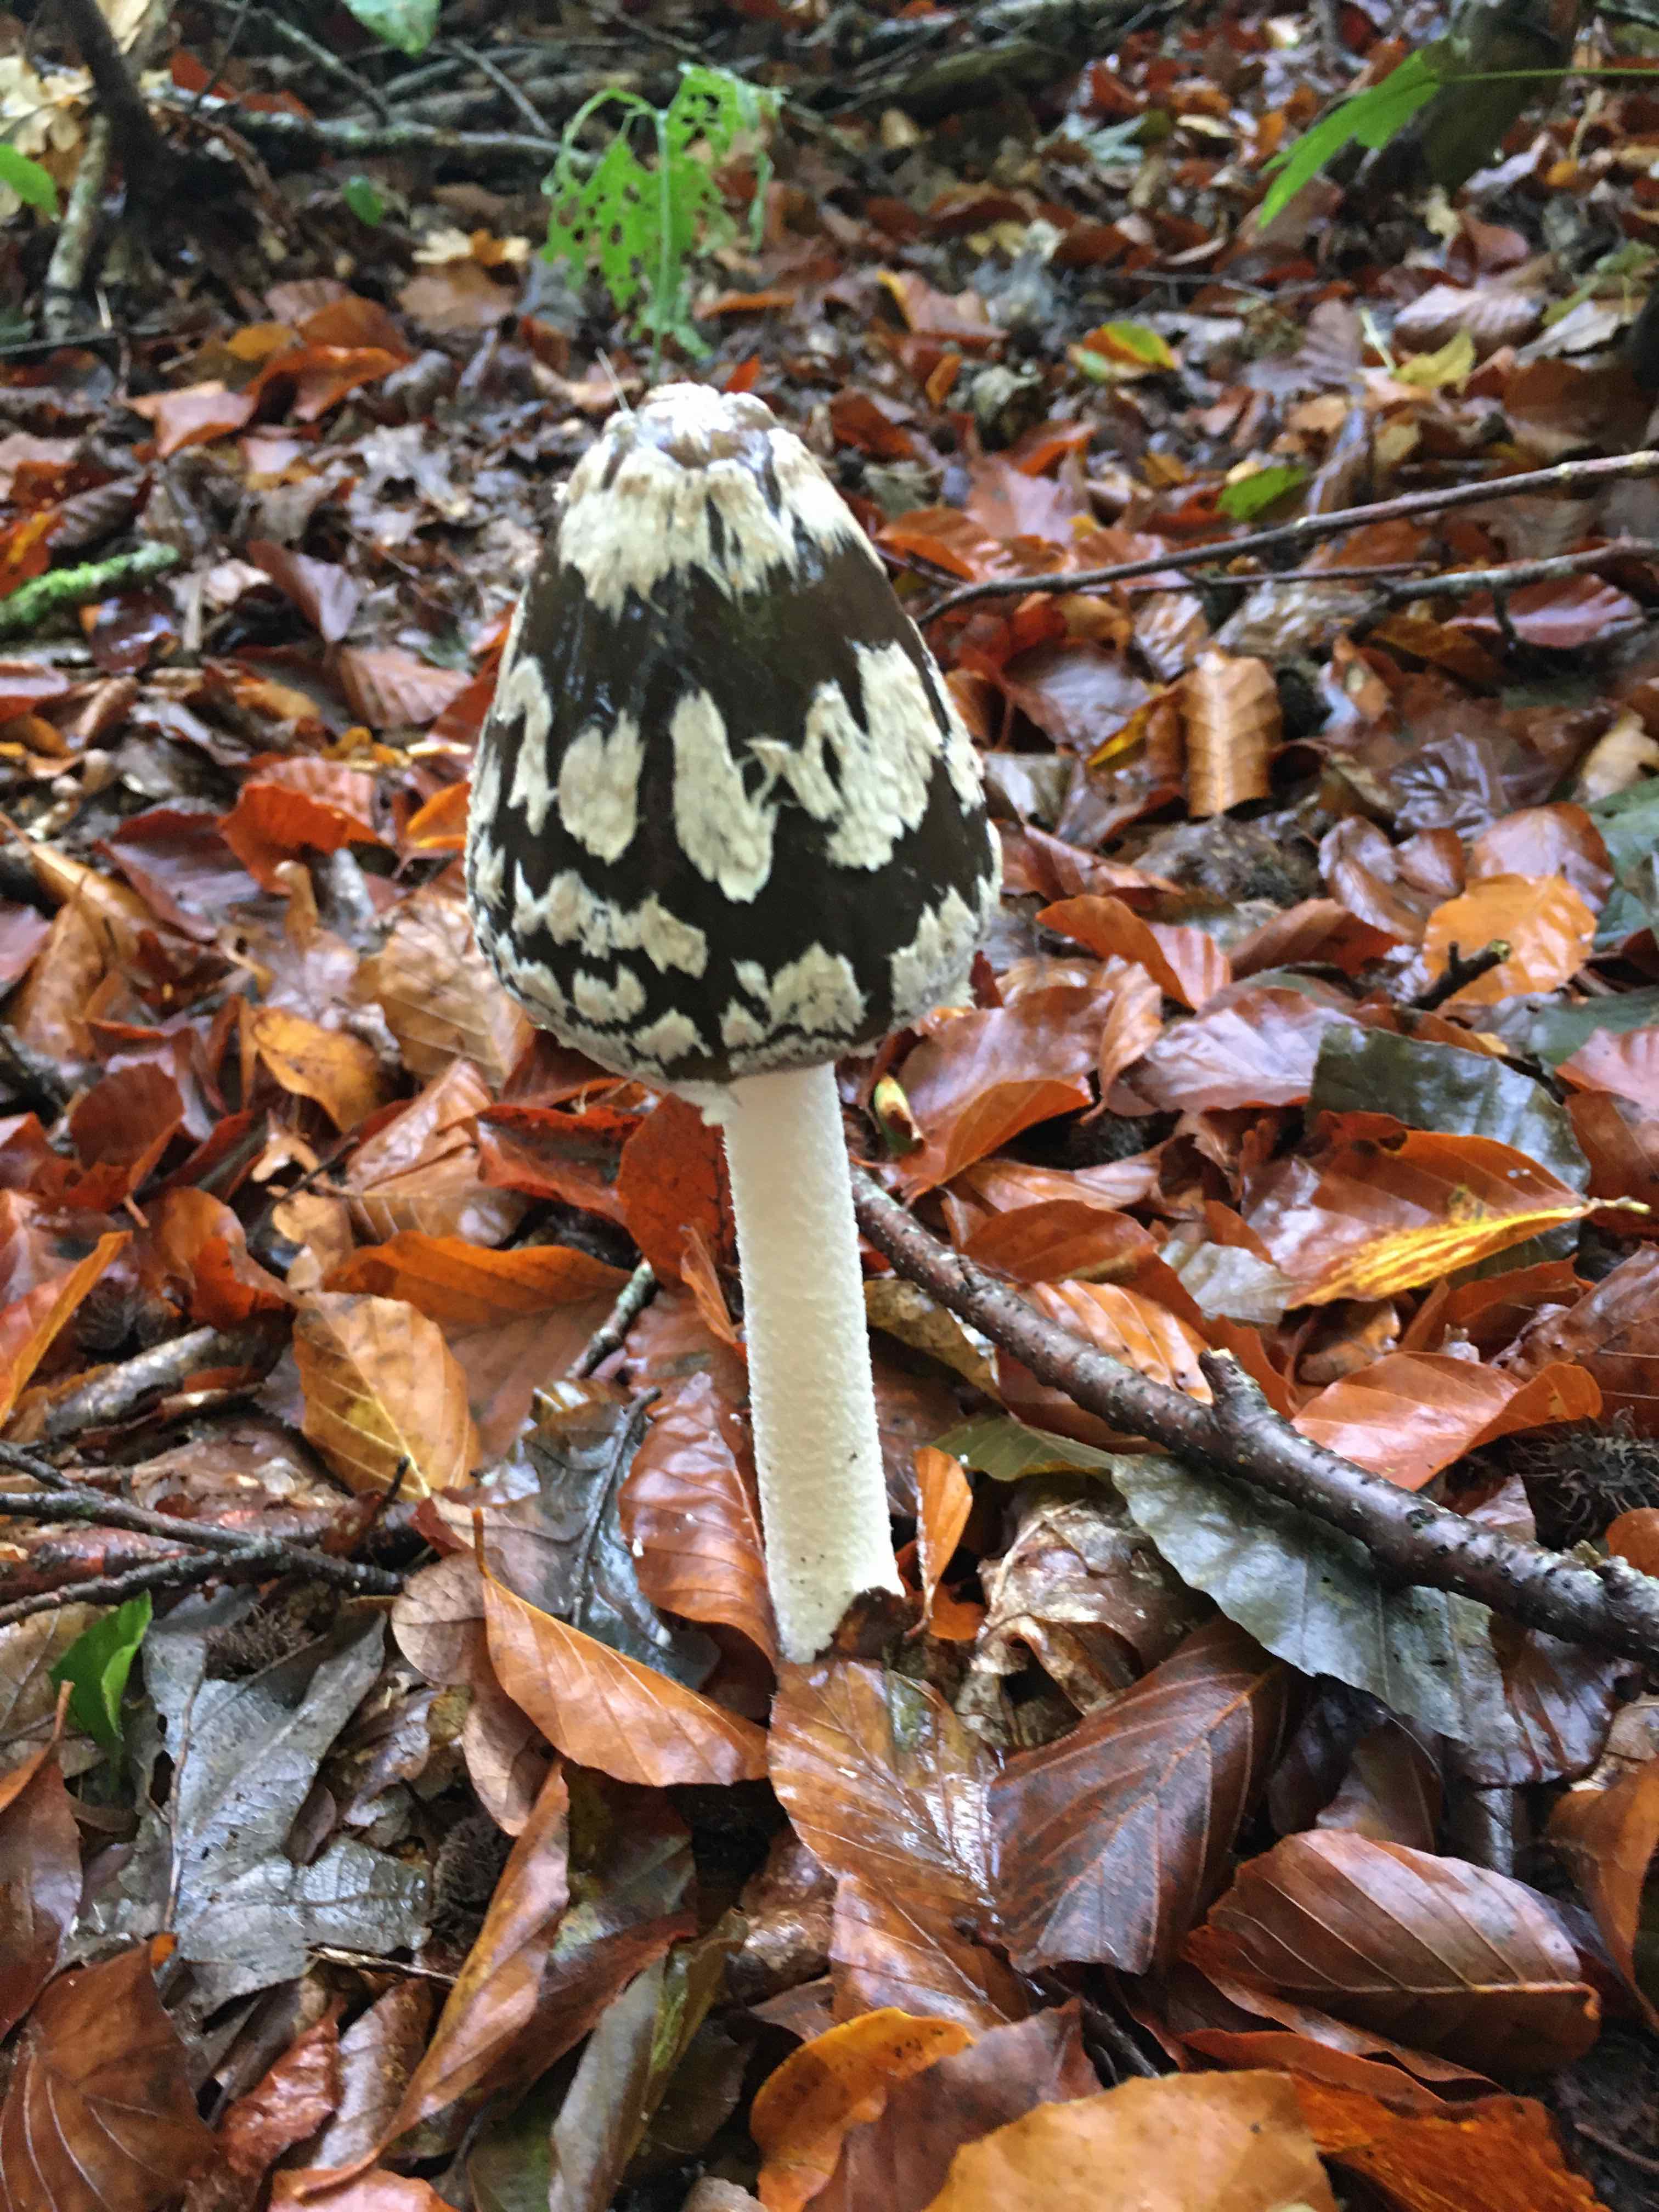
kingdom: Fungi
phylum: Basidiomycota
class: Agaricomycetes
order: Agaricales
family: Psathyrellaceae
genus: Coprinopsis
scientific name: Coprinopsis picacea
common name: skade-blækhat
